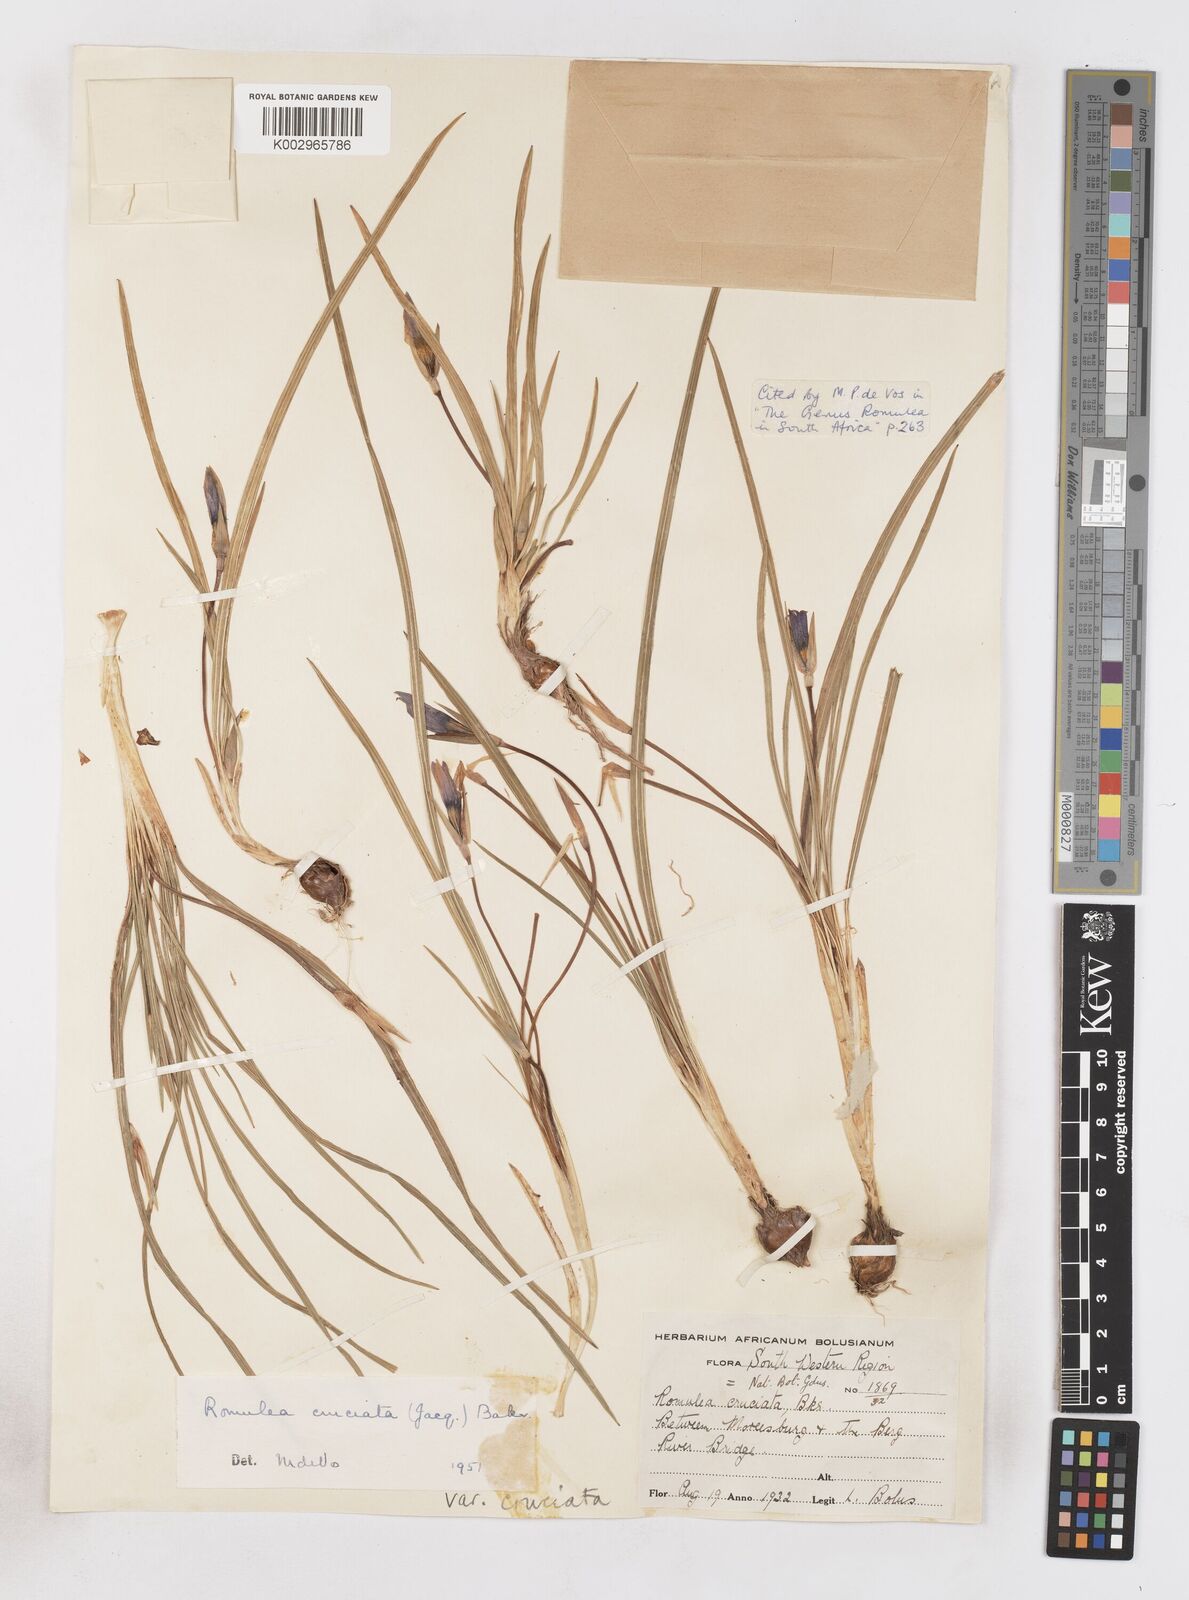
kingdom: Plantae
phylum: Tracheophyta
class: Liliopsida
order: Asparagales
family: Iridaceae
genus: Romulea
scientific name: Romulea cruciata
